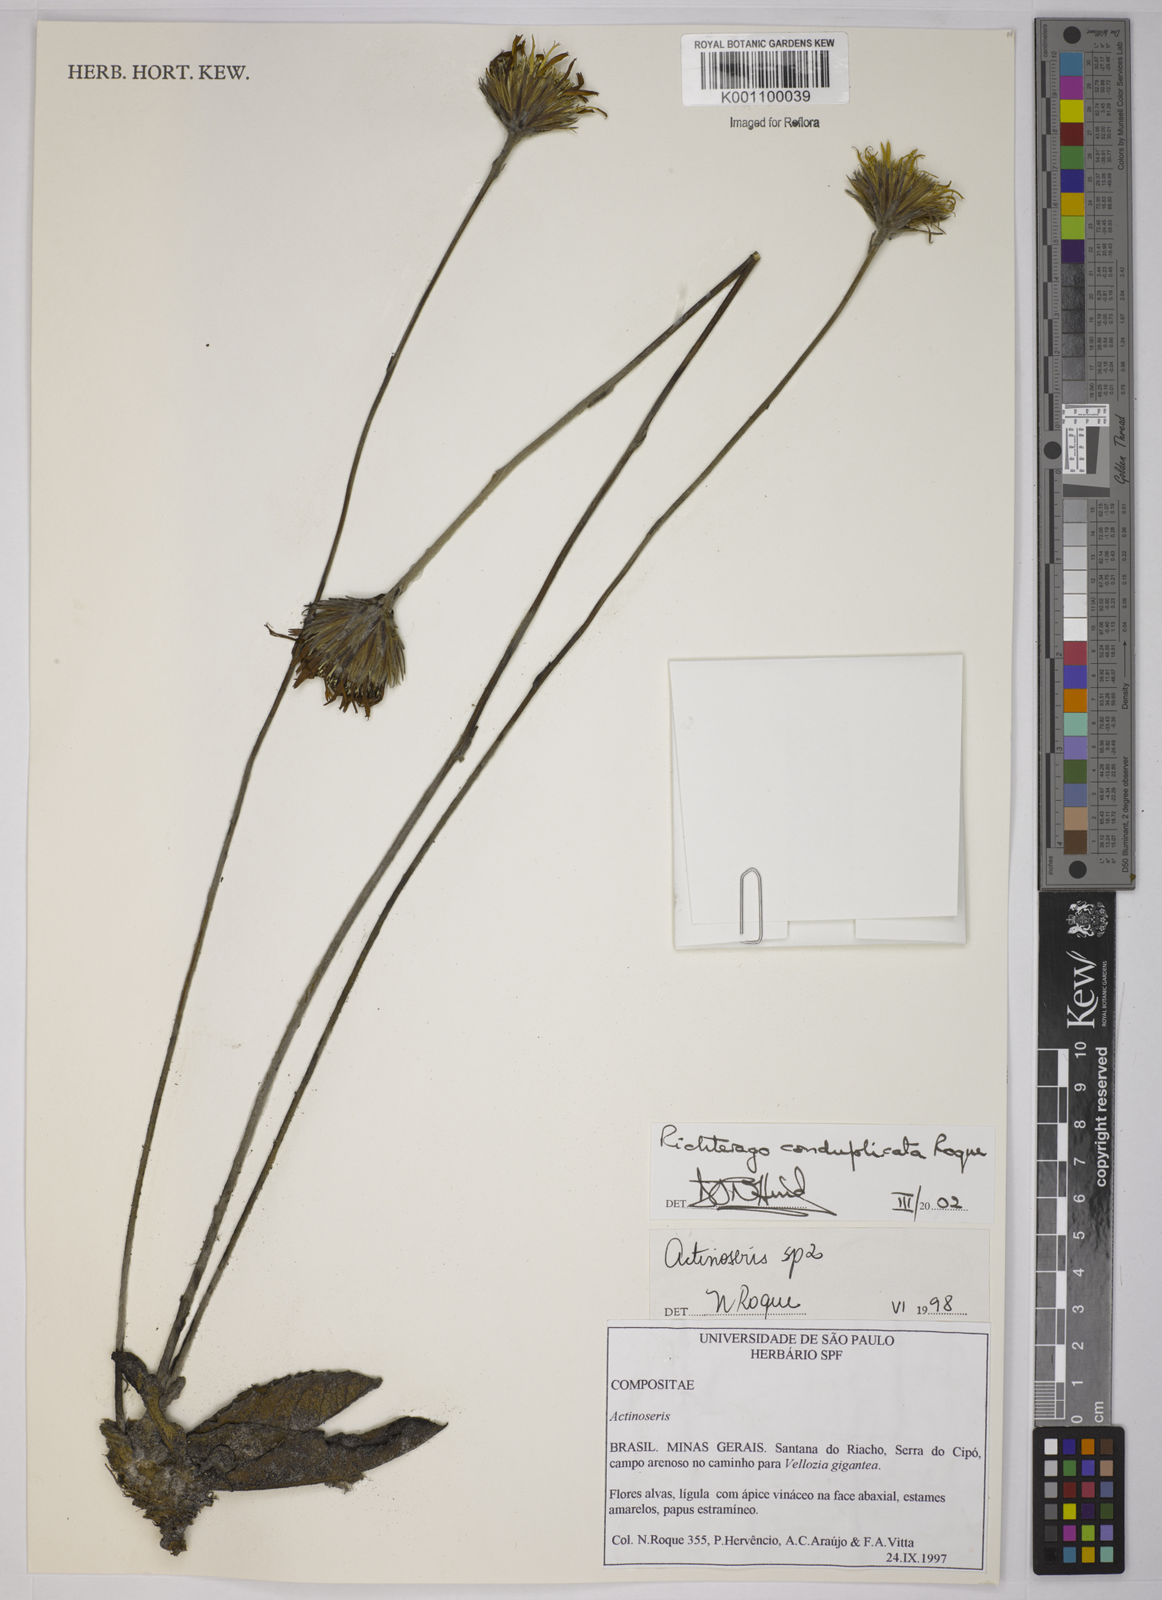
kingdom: Plantae
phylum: Tracheophyta
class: Magnoliopsida
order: Asterales
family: Asteraceae
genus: Richterago
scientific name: Richterago conduplicata
